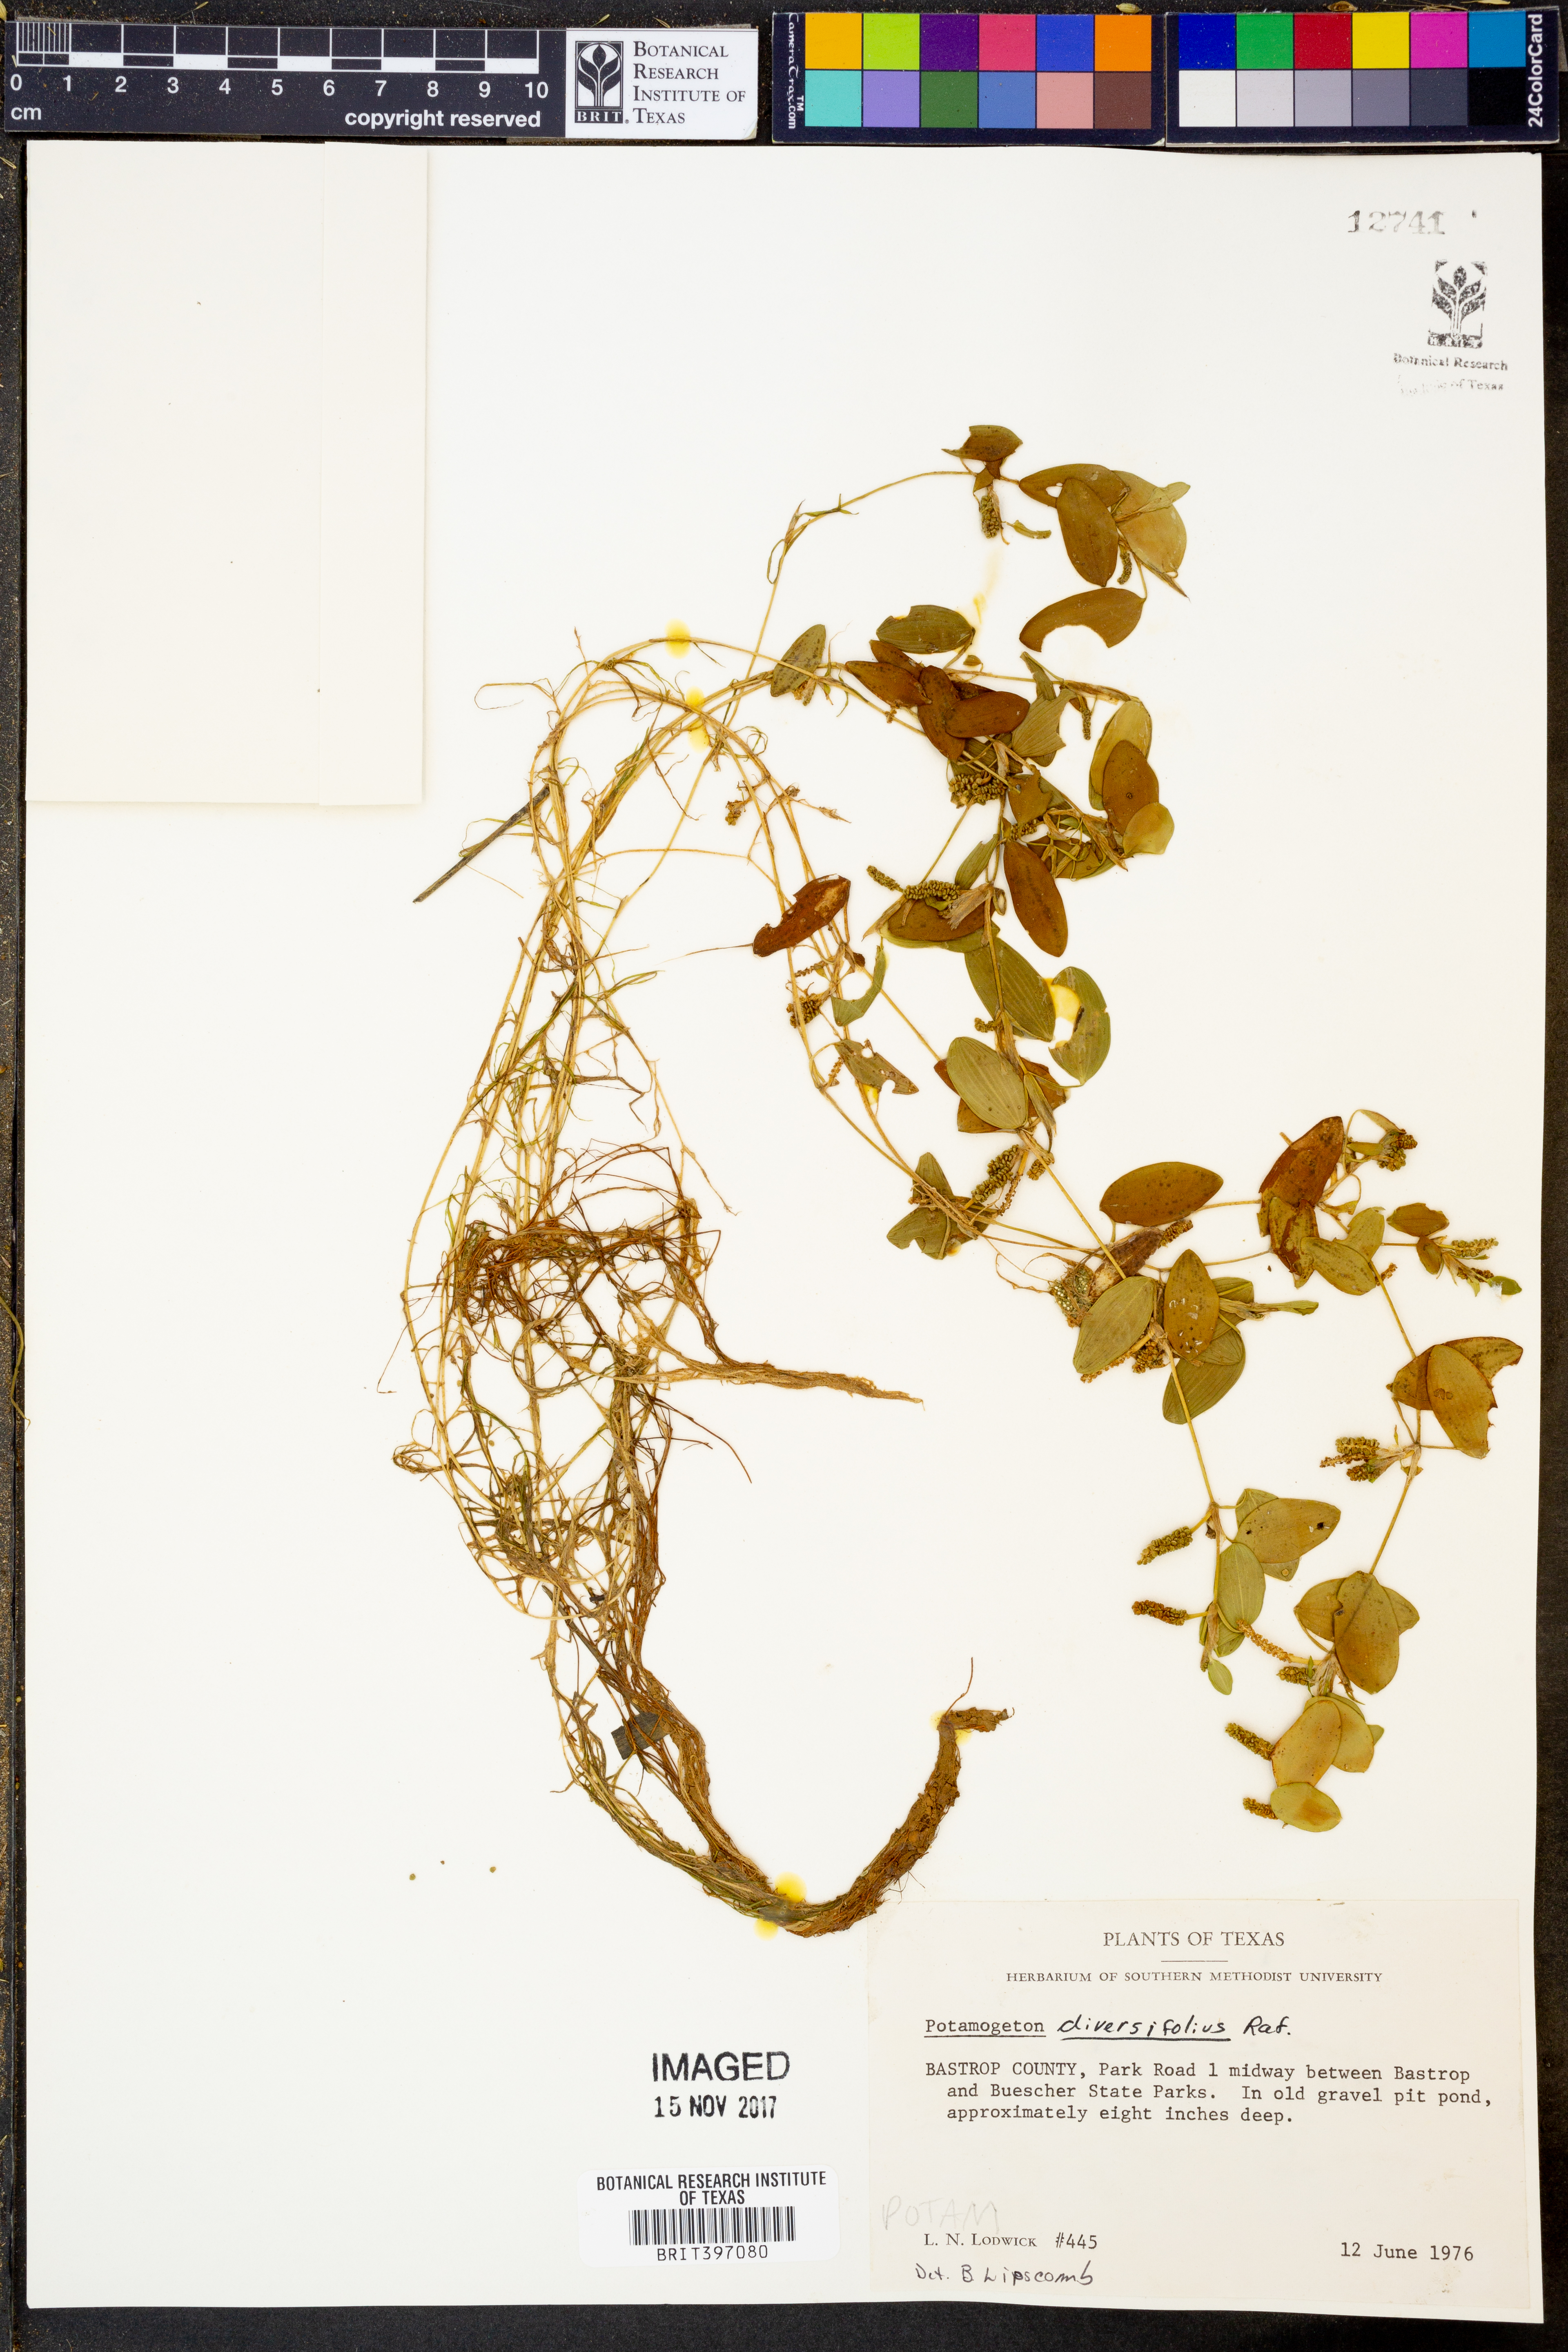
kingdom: Plantae
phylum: Tracheophyta
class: Liliopsida
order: Alismatales
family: Potamogetonaceae
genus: Potamogeton
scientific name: Potamogeton diversifolius
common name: Water-thread pondweed
